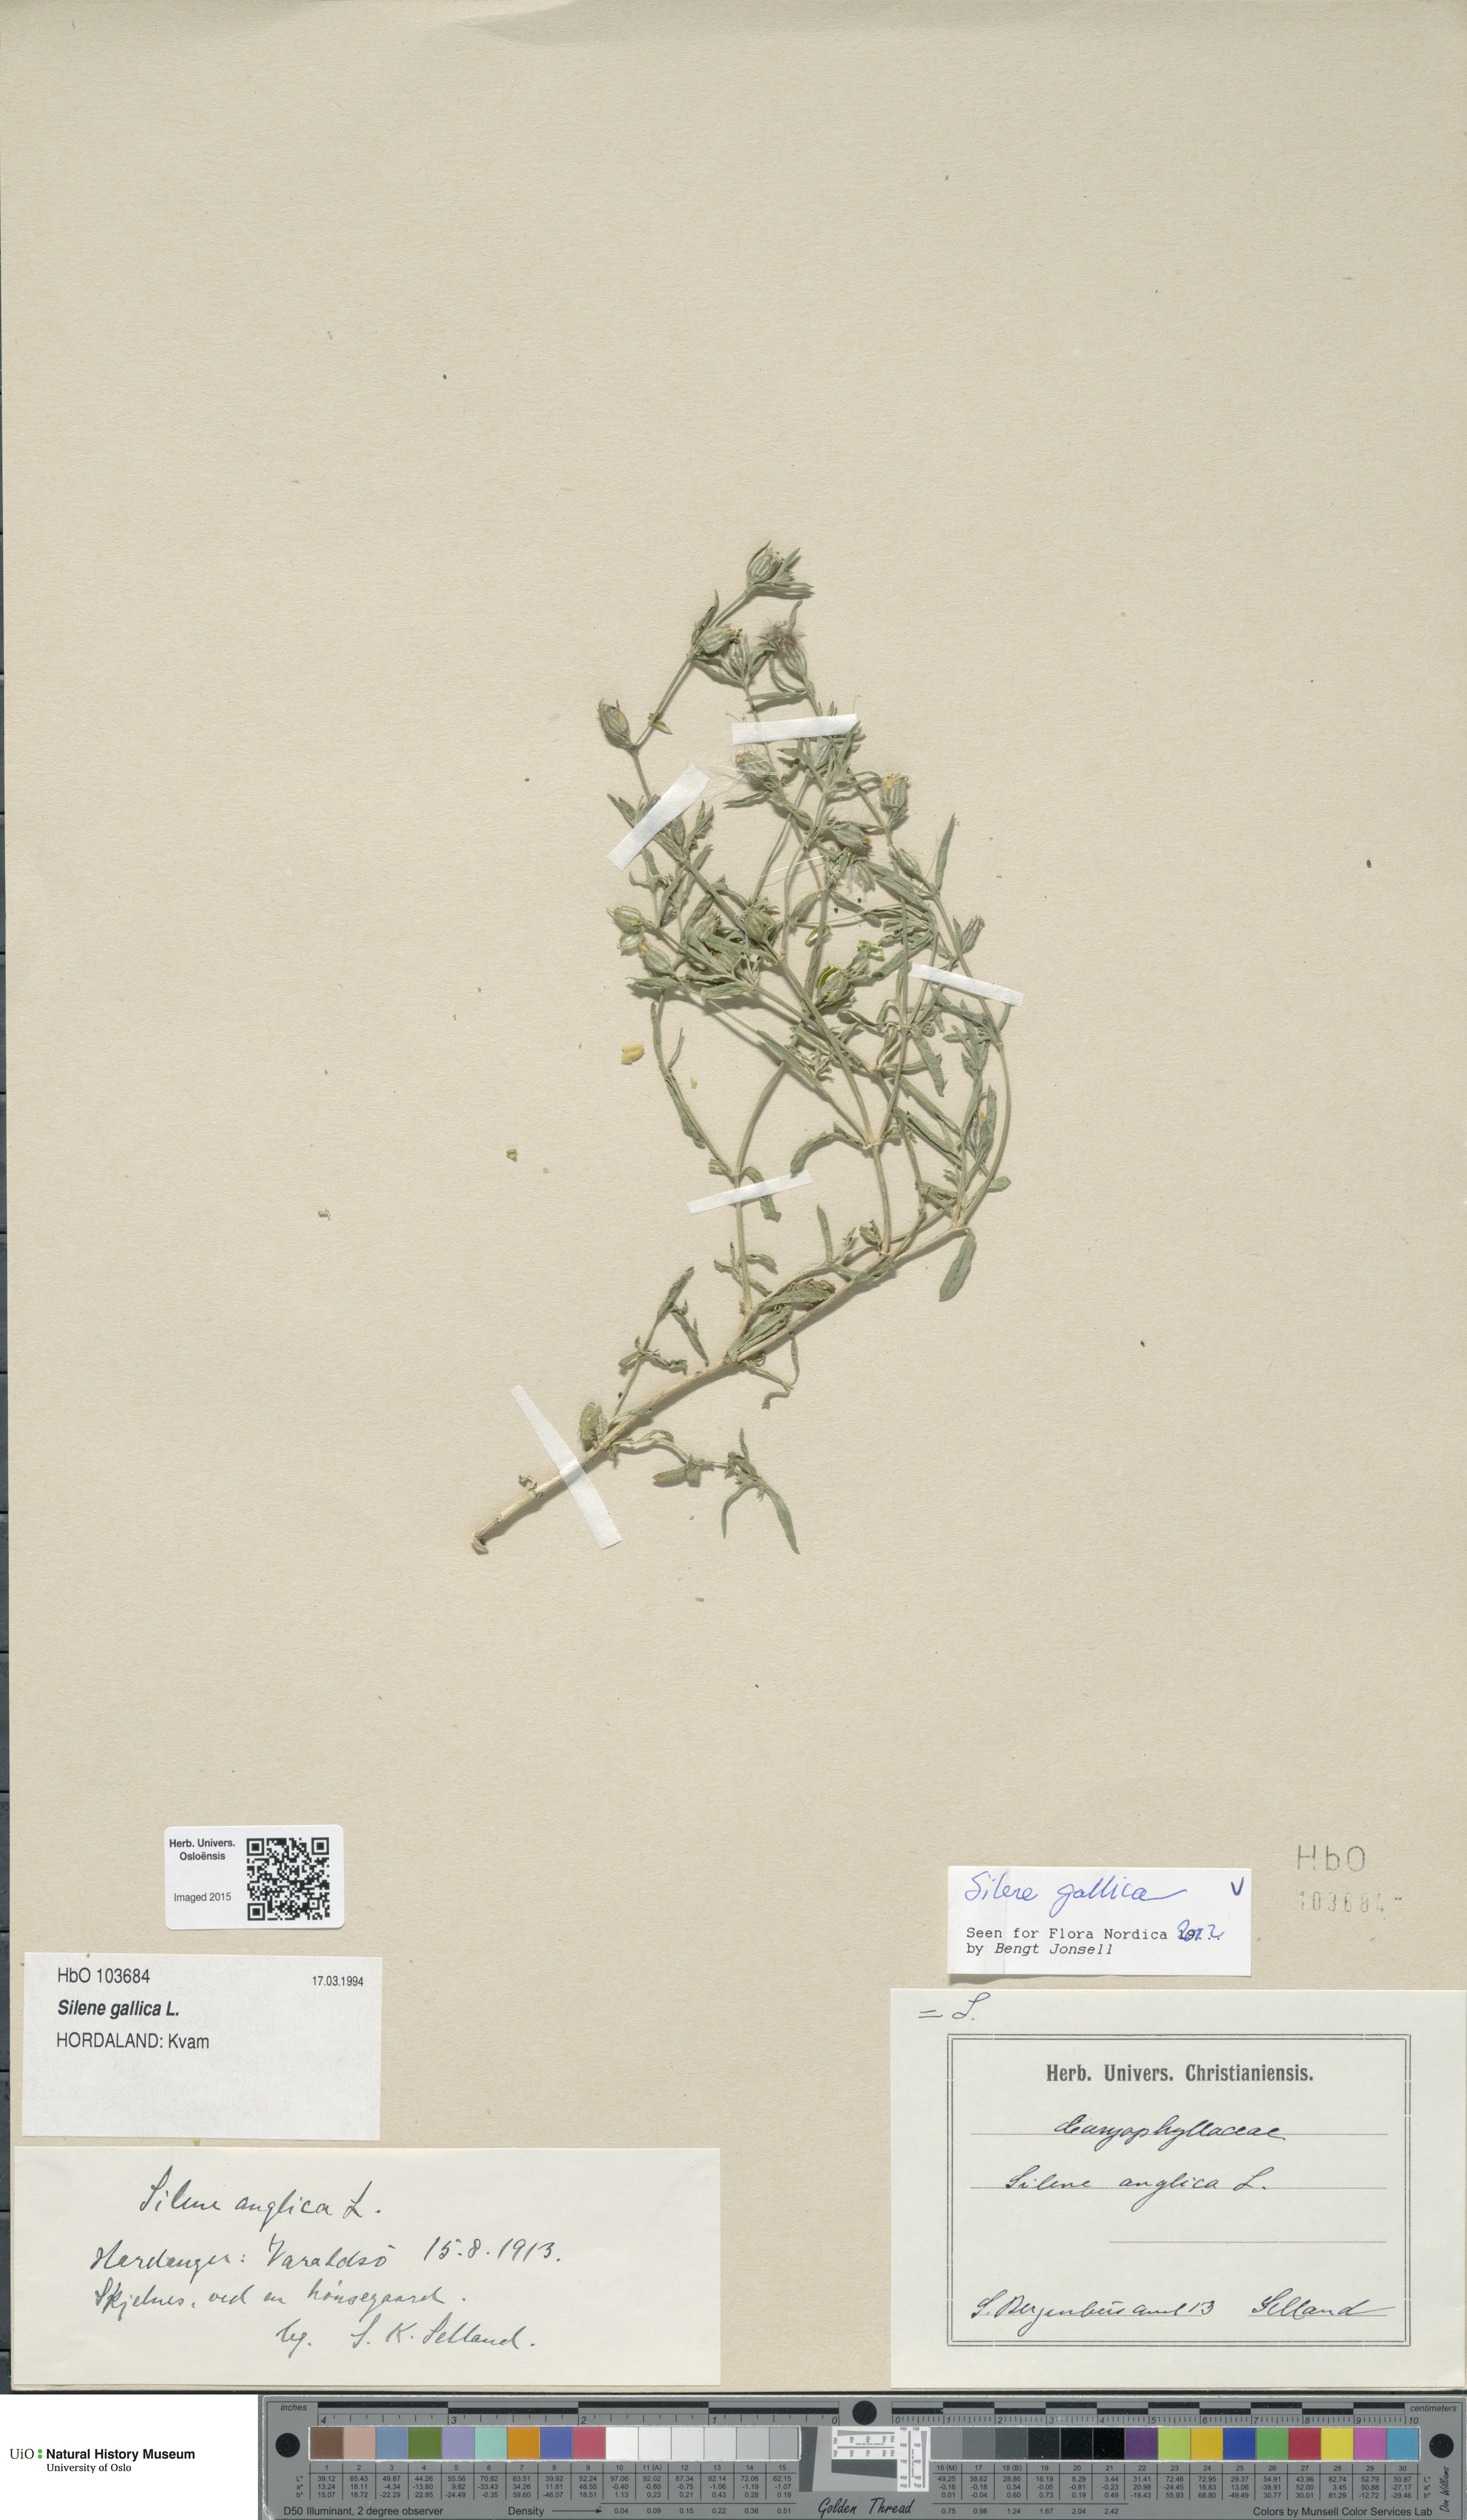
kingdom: Plantae
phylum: Tracheophyta
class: Magnoliopsida
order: Caryophyllales
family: Caryophyllaceae
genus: Silene
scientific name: Silene gallica
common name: Small-flowered catchfly
